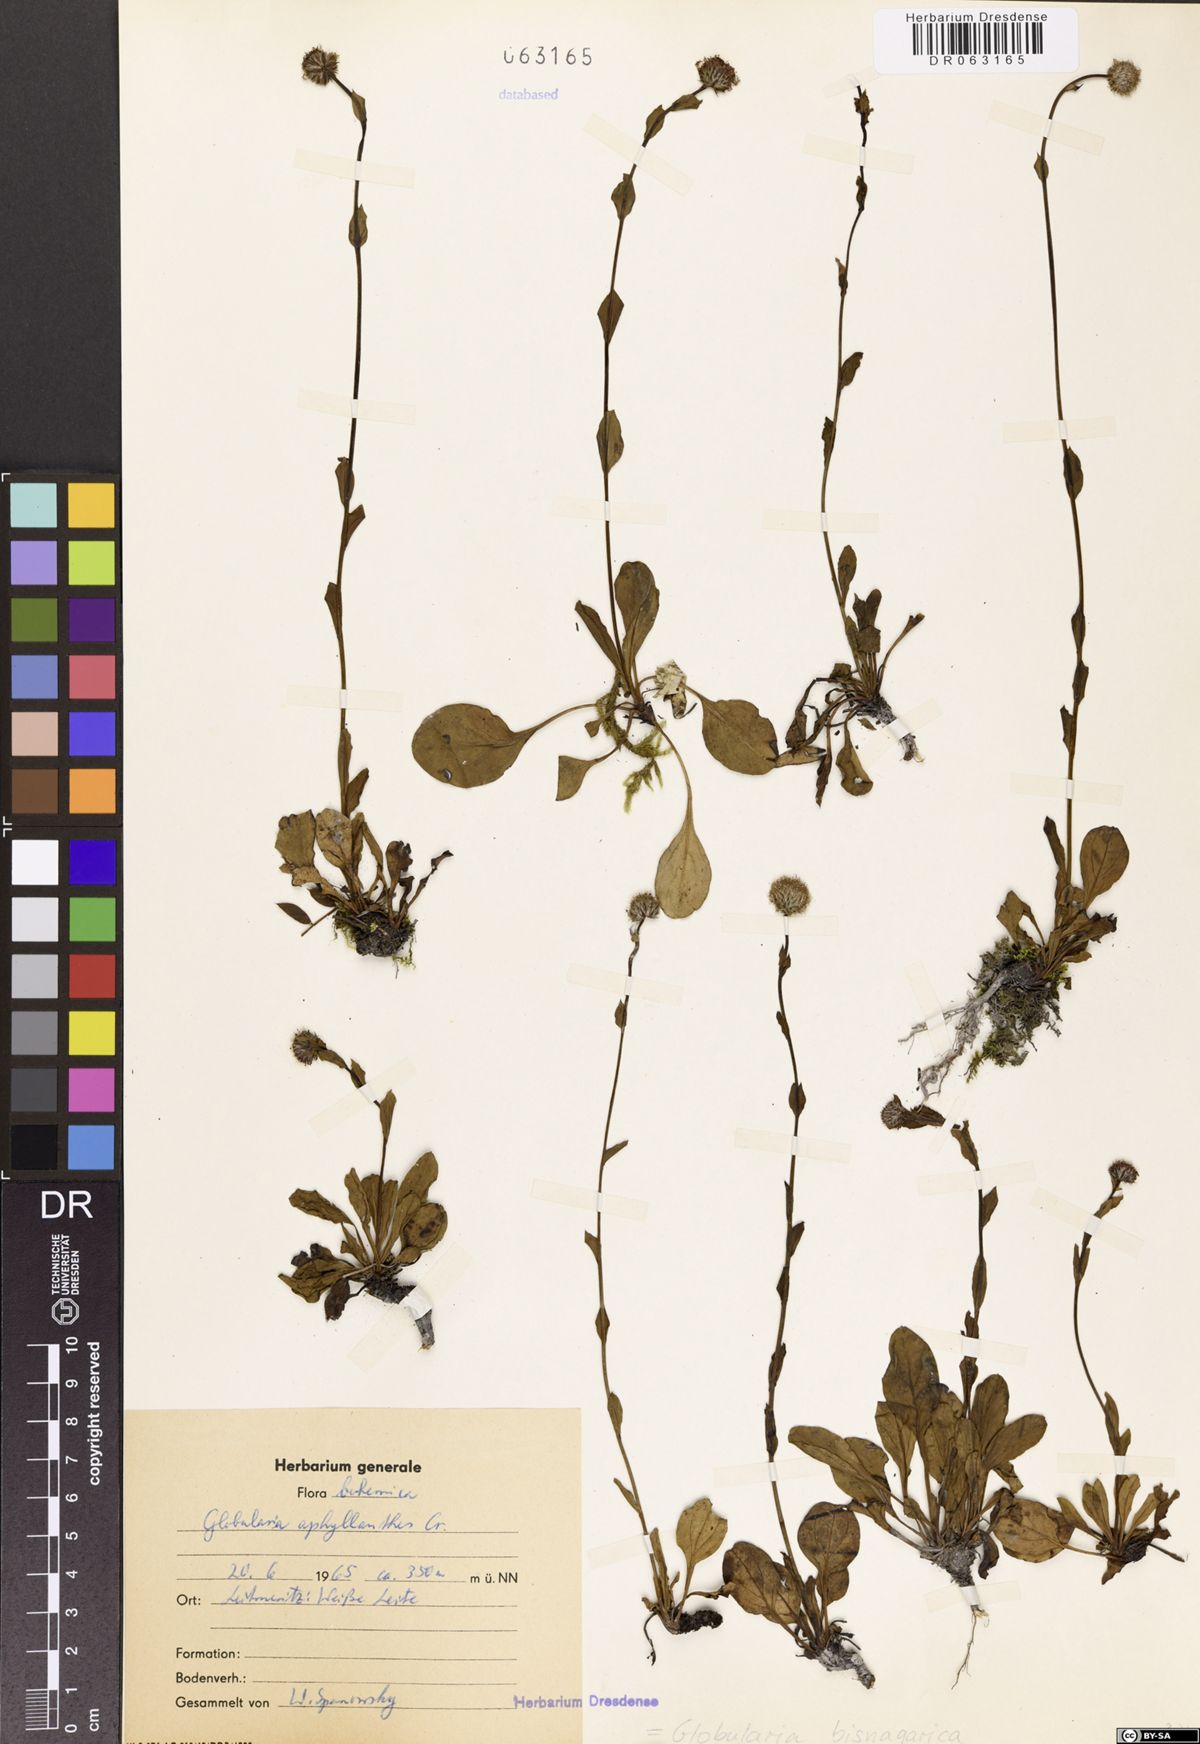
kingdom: Plantae
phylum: Tracheophyta
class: Magnoliopsida
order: Lamiales
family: Plantaginaceae
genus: Globularia
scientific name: Globularia bisnagarica
